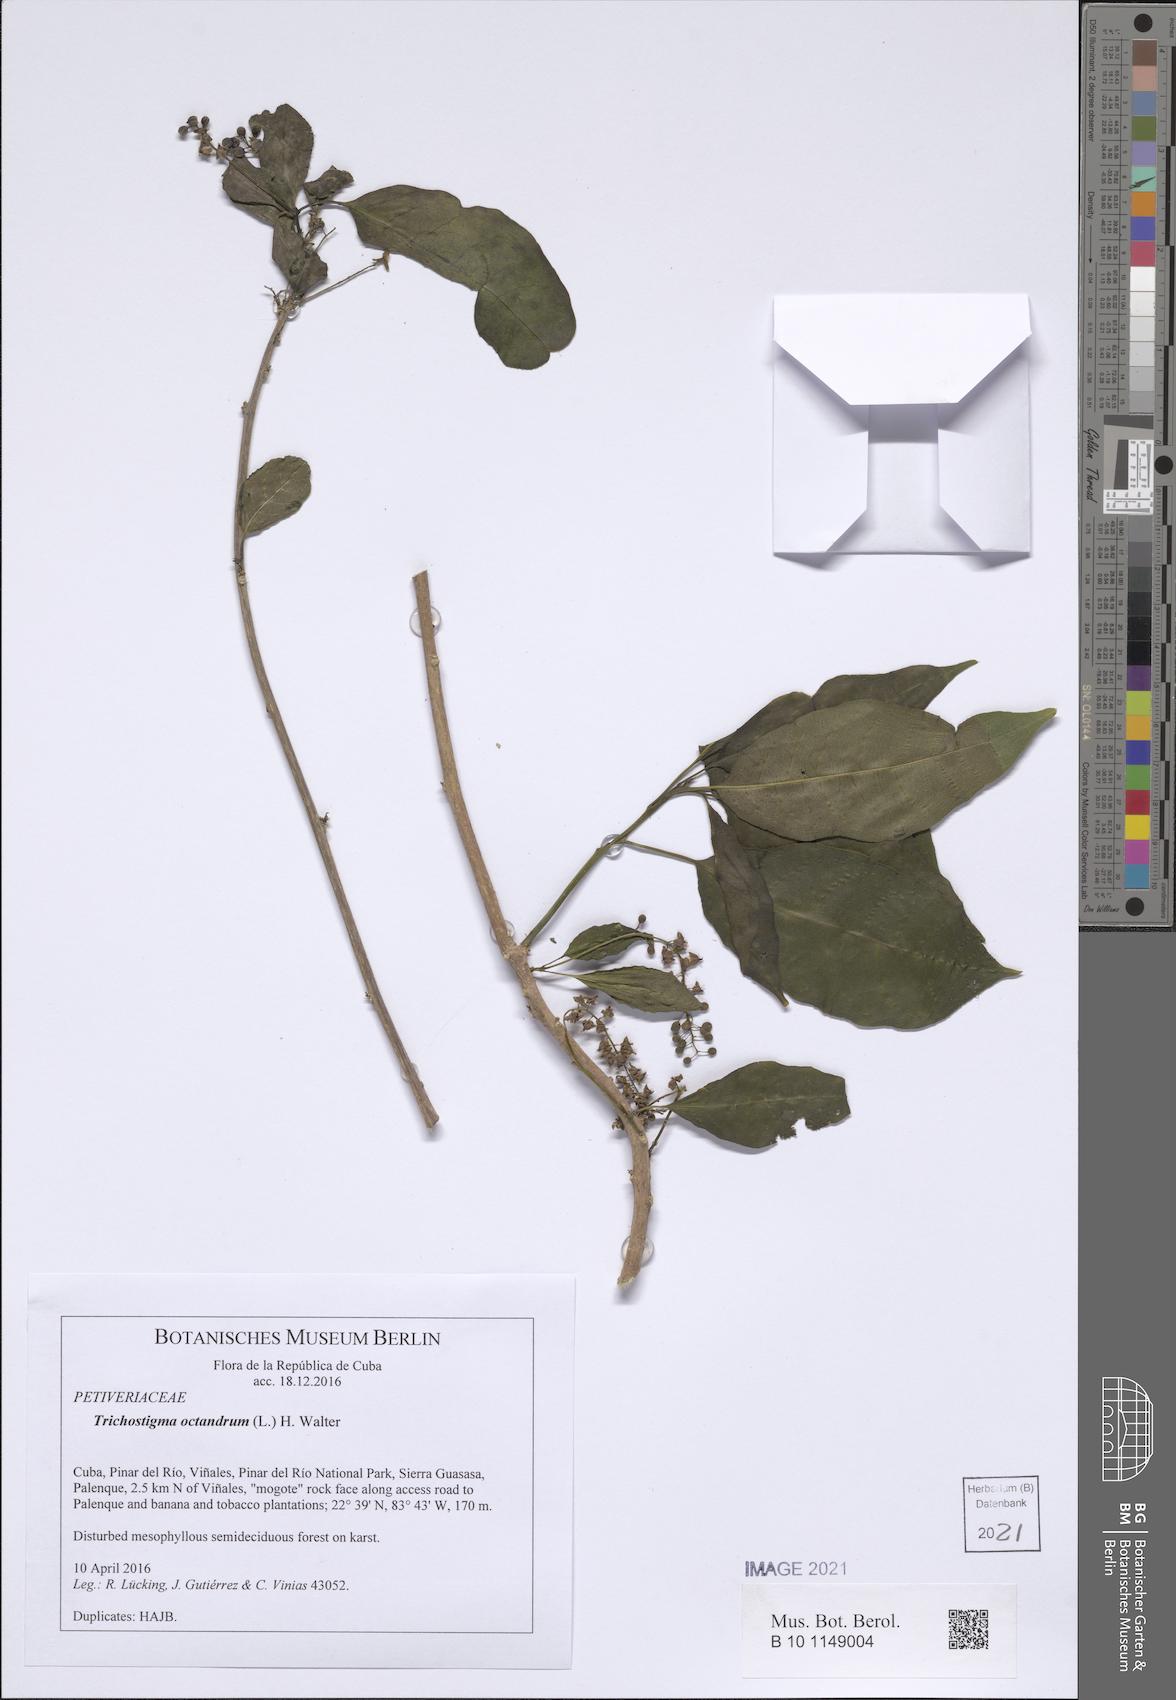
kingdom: Plantae
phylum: Tracheophyta
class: Magnoliopsida
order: Caryophyllales
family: Phytolaccaceae
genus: Trichostigma
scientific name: Trichostigma octandrum
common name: Basket wiss
